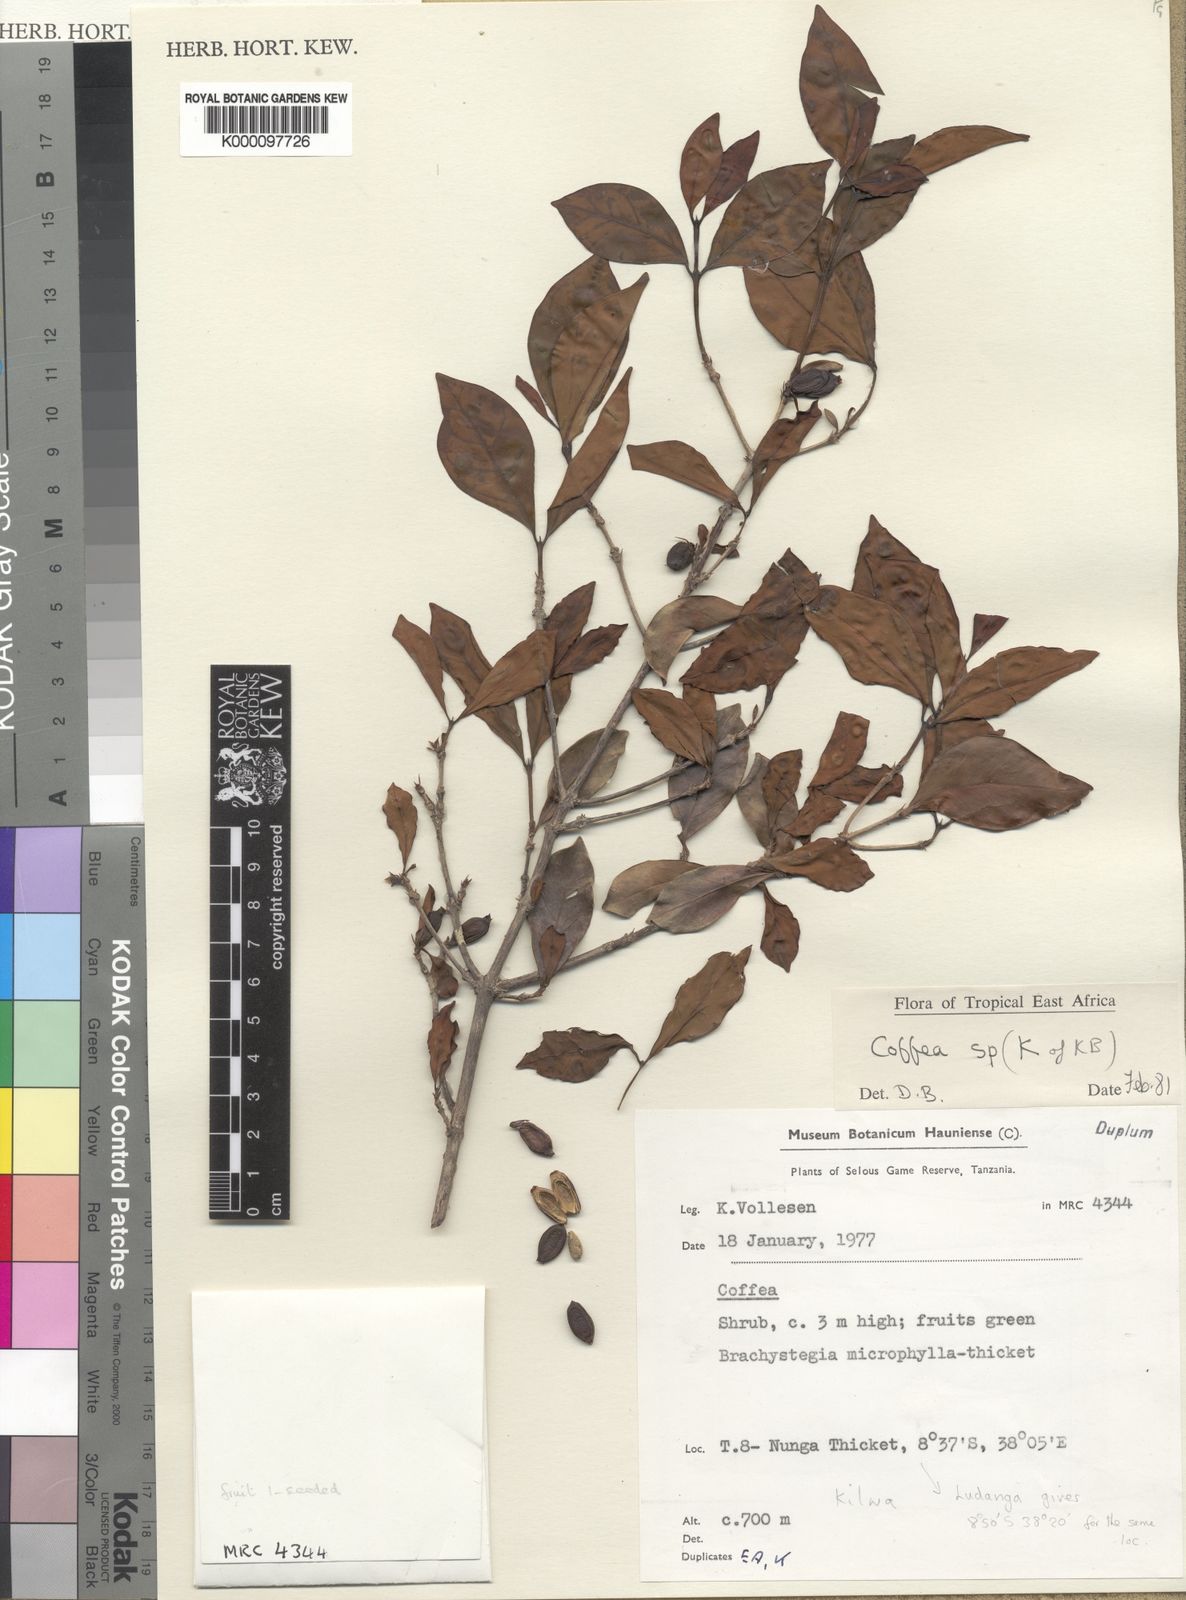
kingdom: Plantae
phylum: Tracheophyta
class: Magnoliopsida
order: Gentianales
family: Rubiaceae
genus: Coffea
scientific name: Coffea costatifructa
